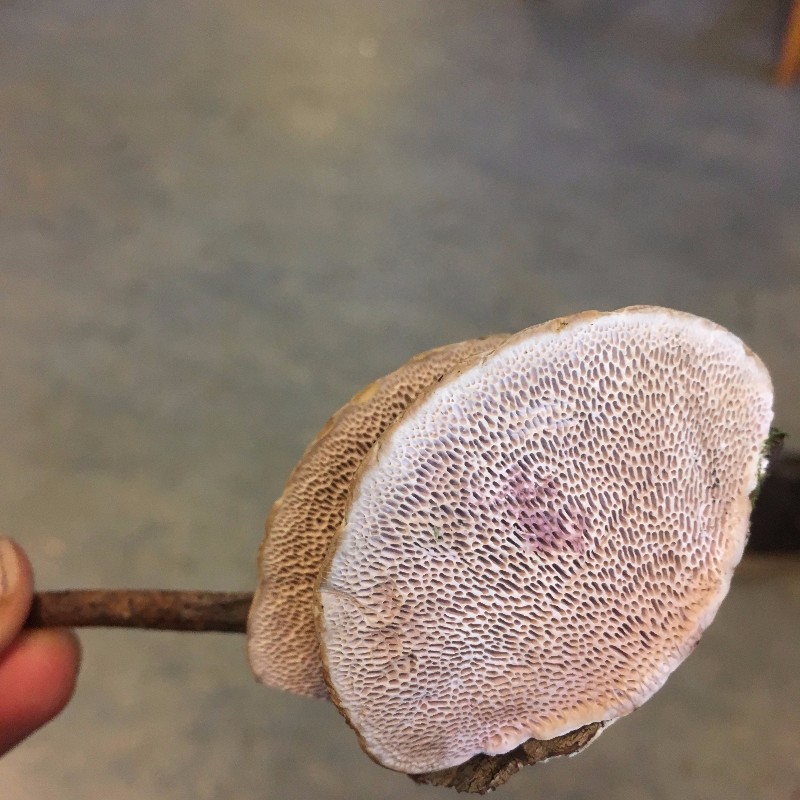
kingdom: Fungi
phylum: Basidiomycota
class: Agaricomycetes
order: Polyporales
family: Polyporaceae
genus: Daedaleopsis
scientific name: Daedaleopsis confragosa
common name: rødmende læderporesvamp
